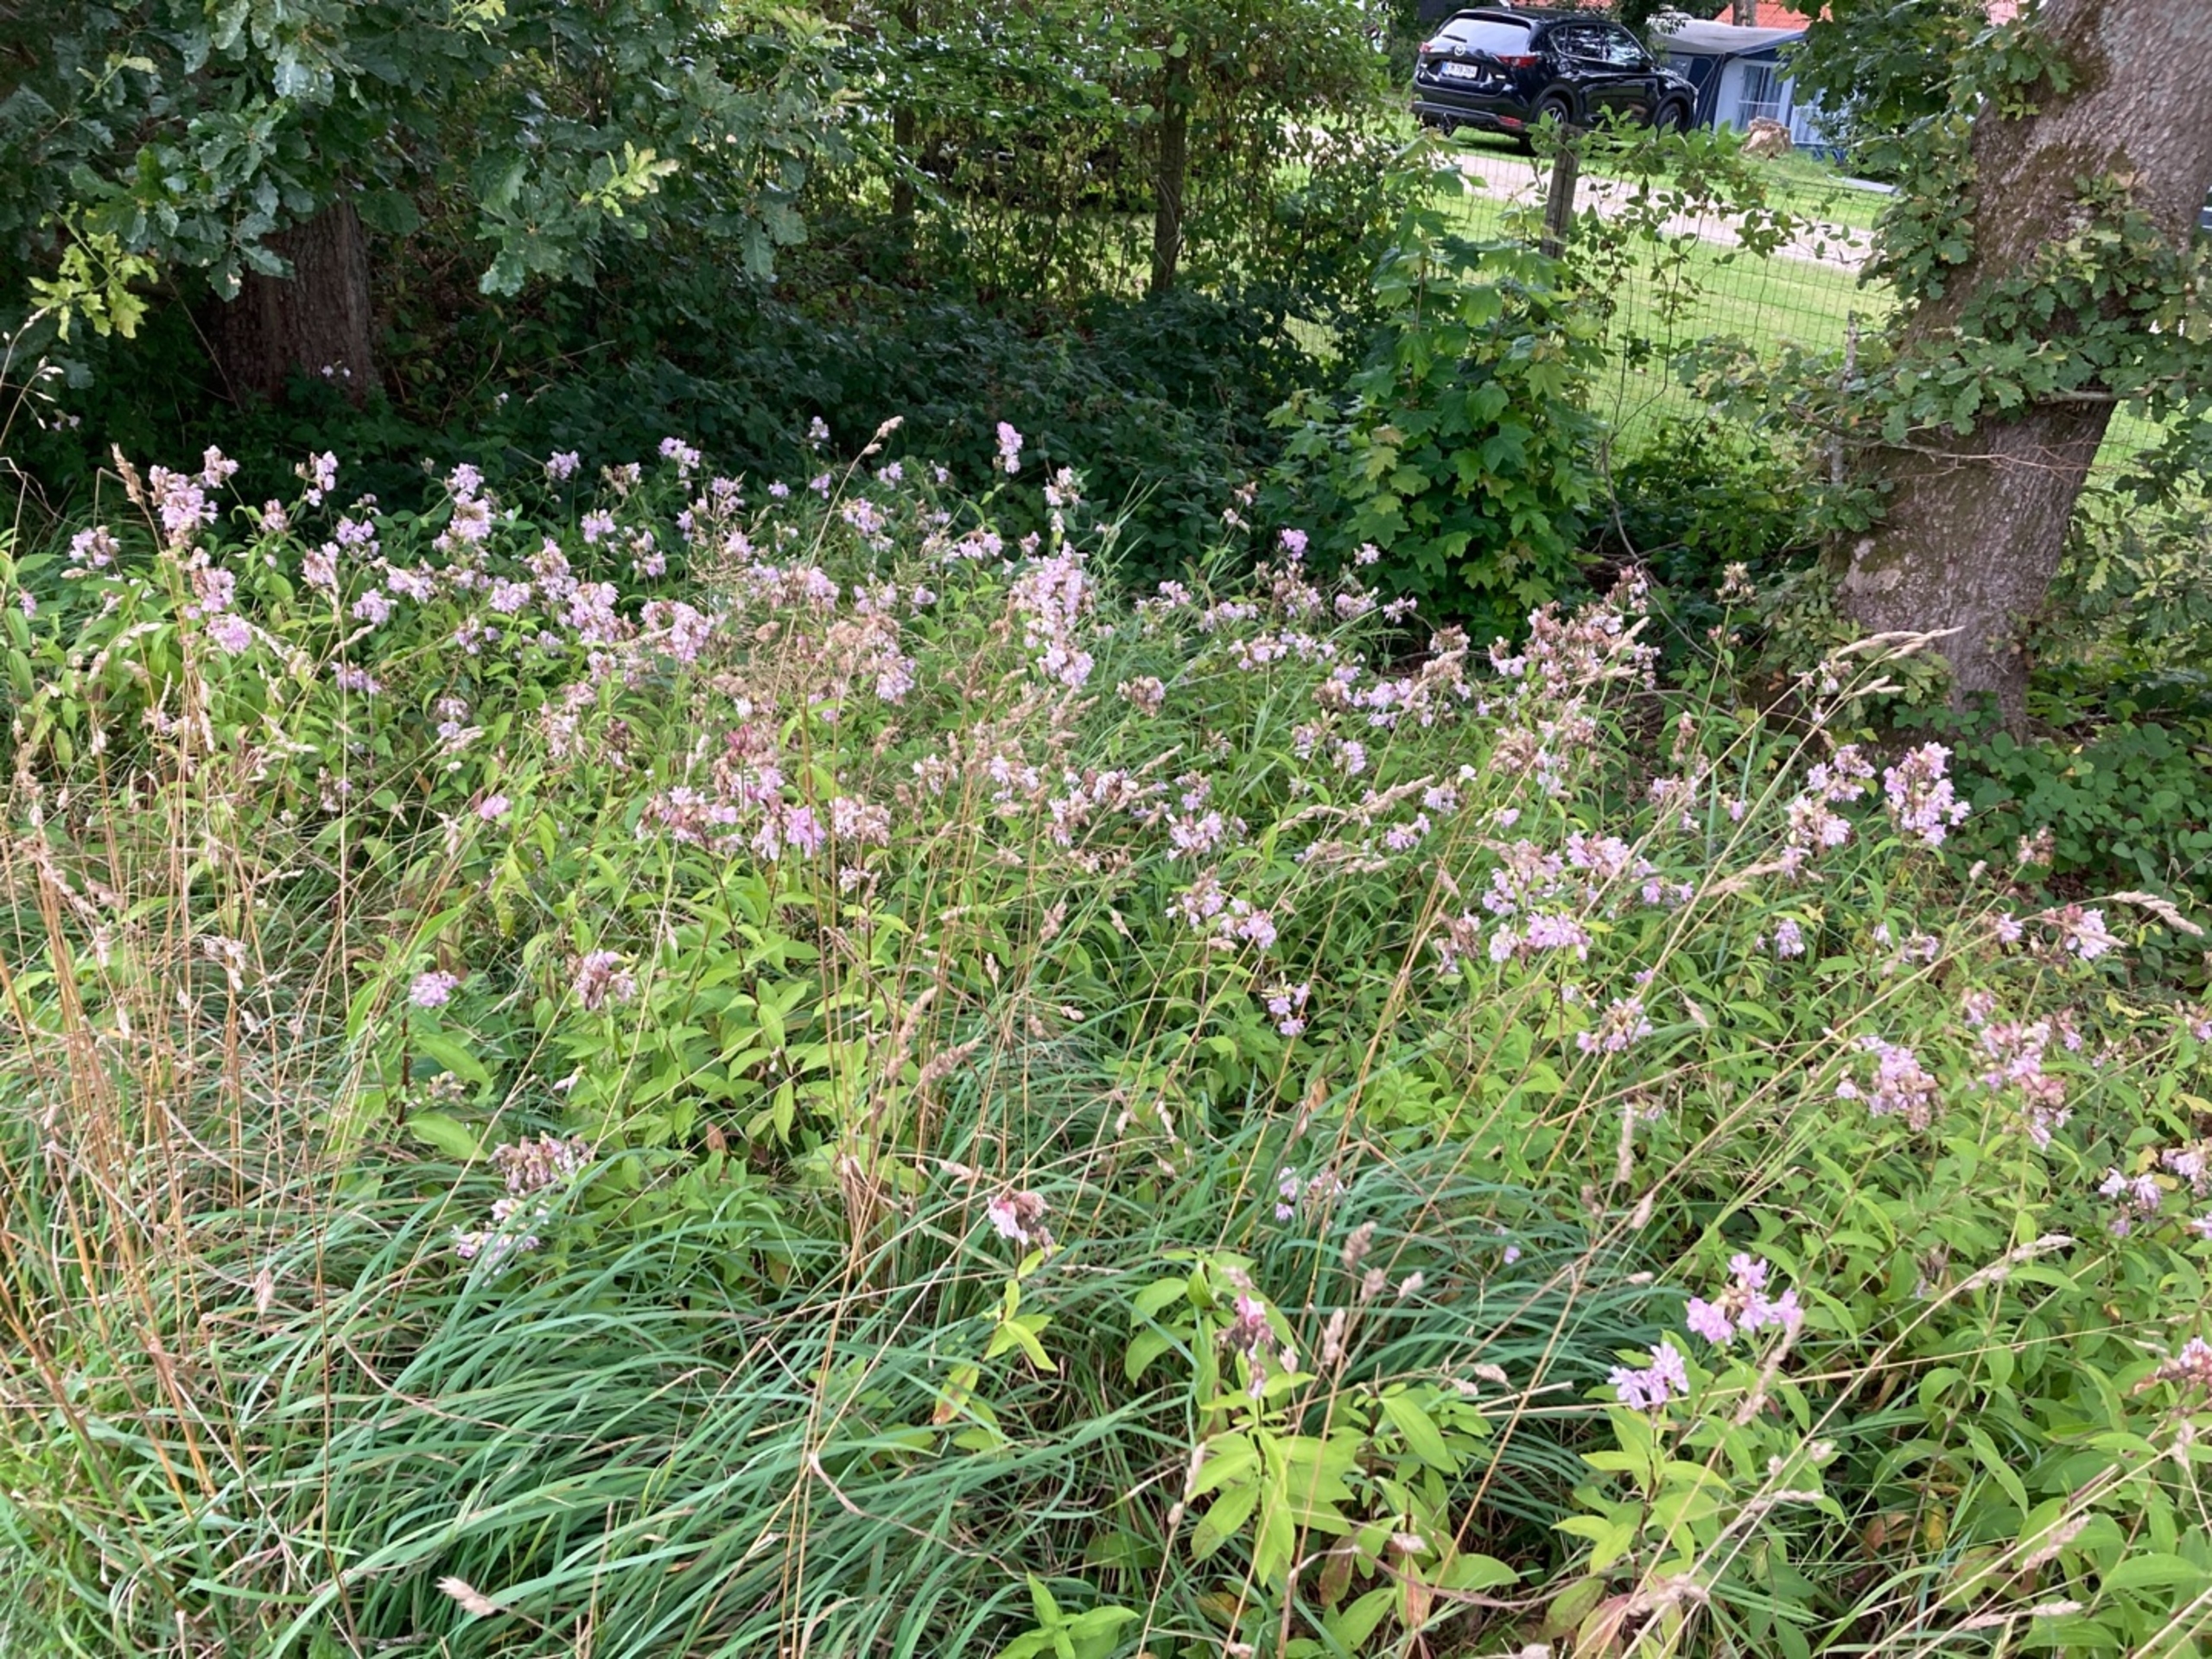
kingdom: Plantae
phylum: Tracheophyta
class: Magnoliopsida
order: Caryophyllales
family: Caryophyllaceae
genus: Saponaria
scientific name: Saponaria officinalis
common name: Sæbeurt
